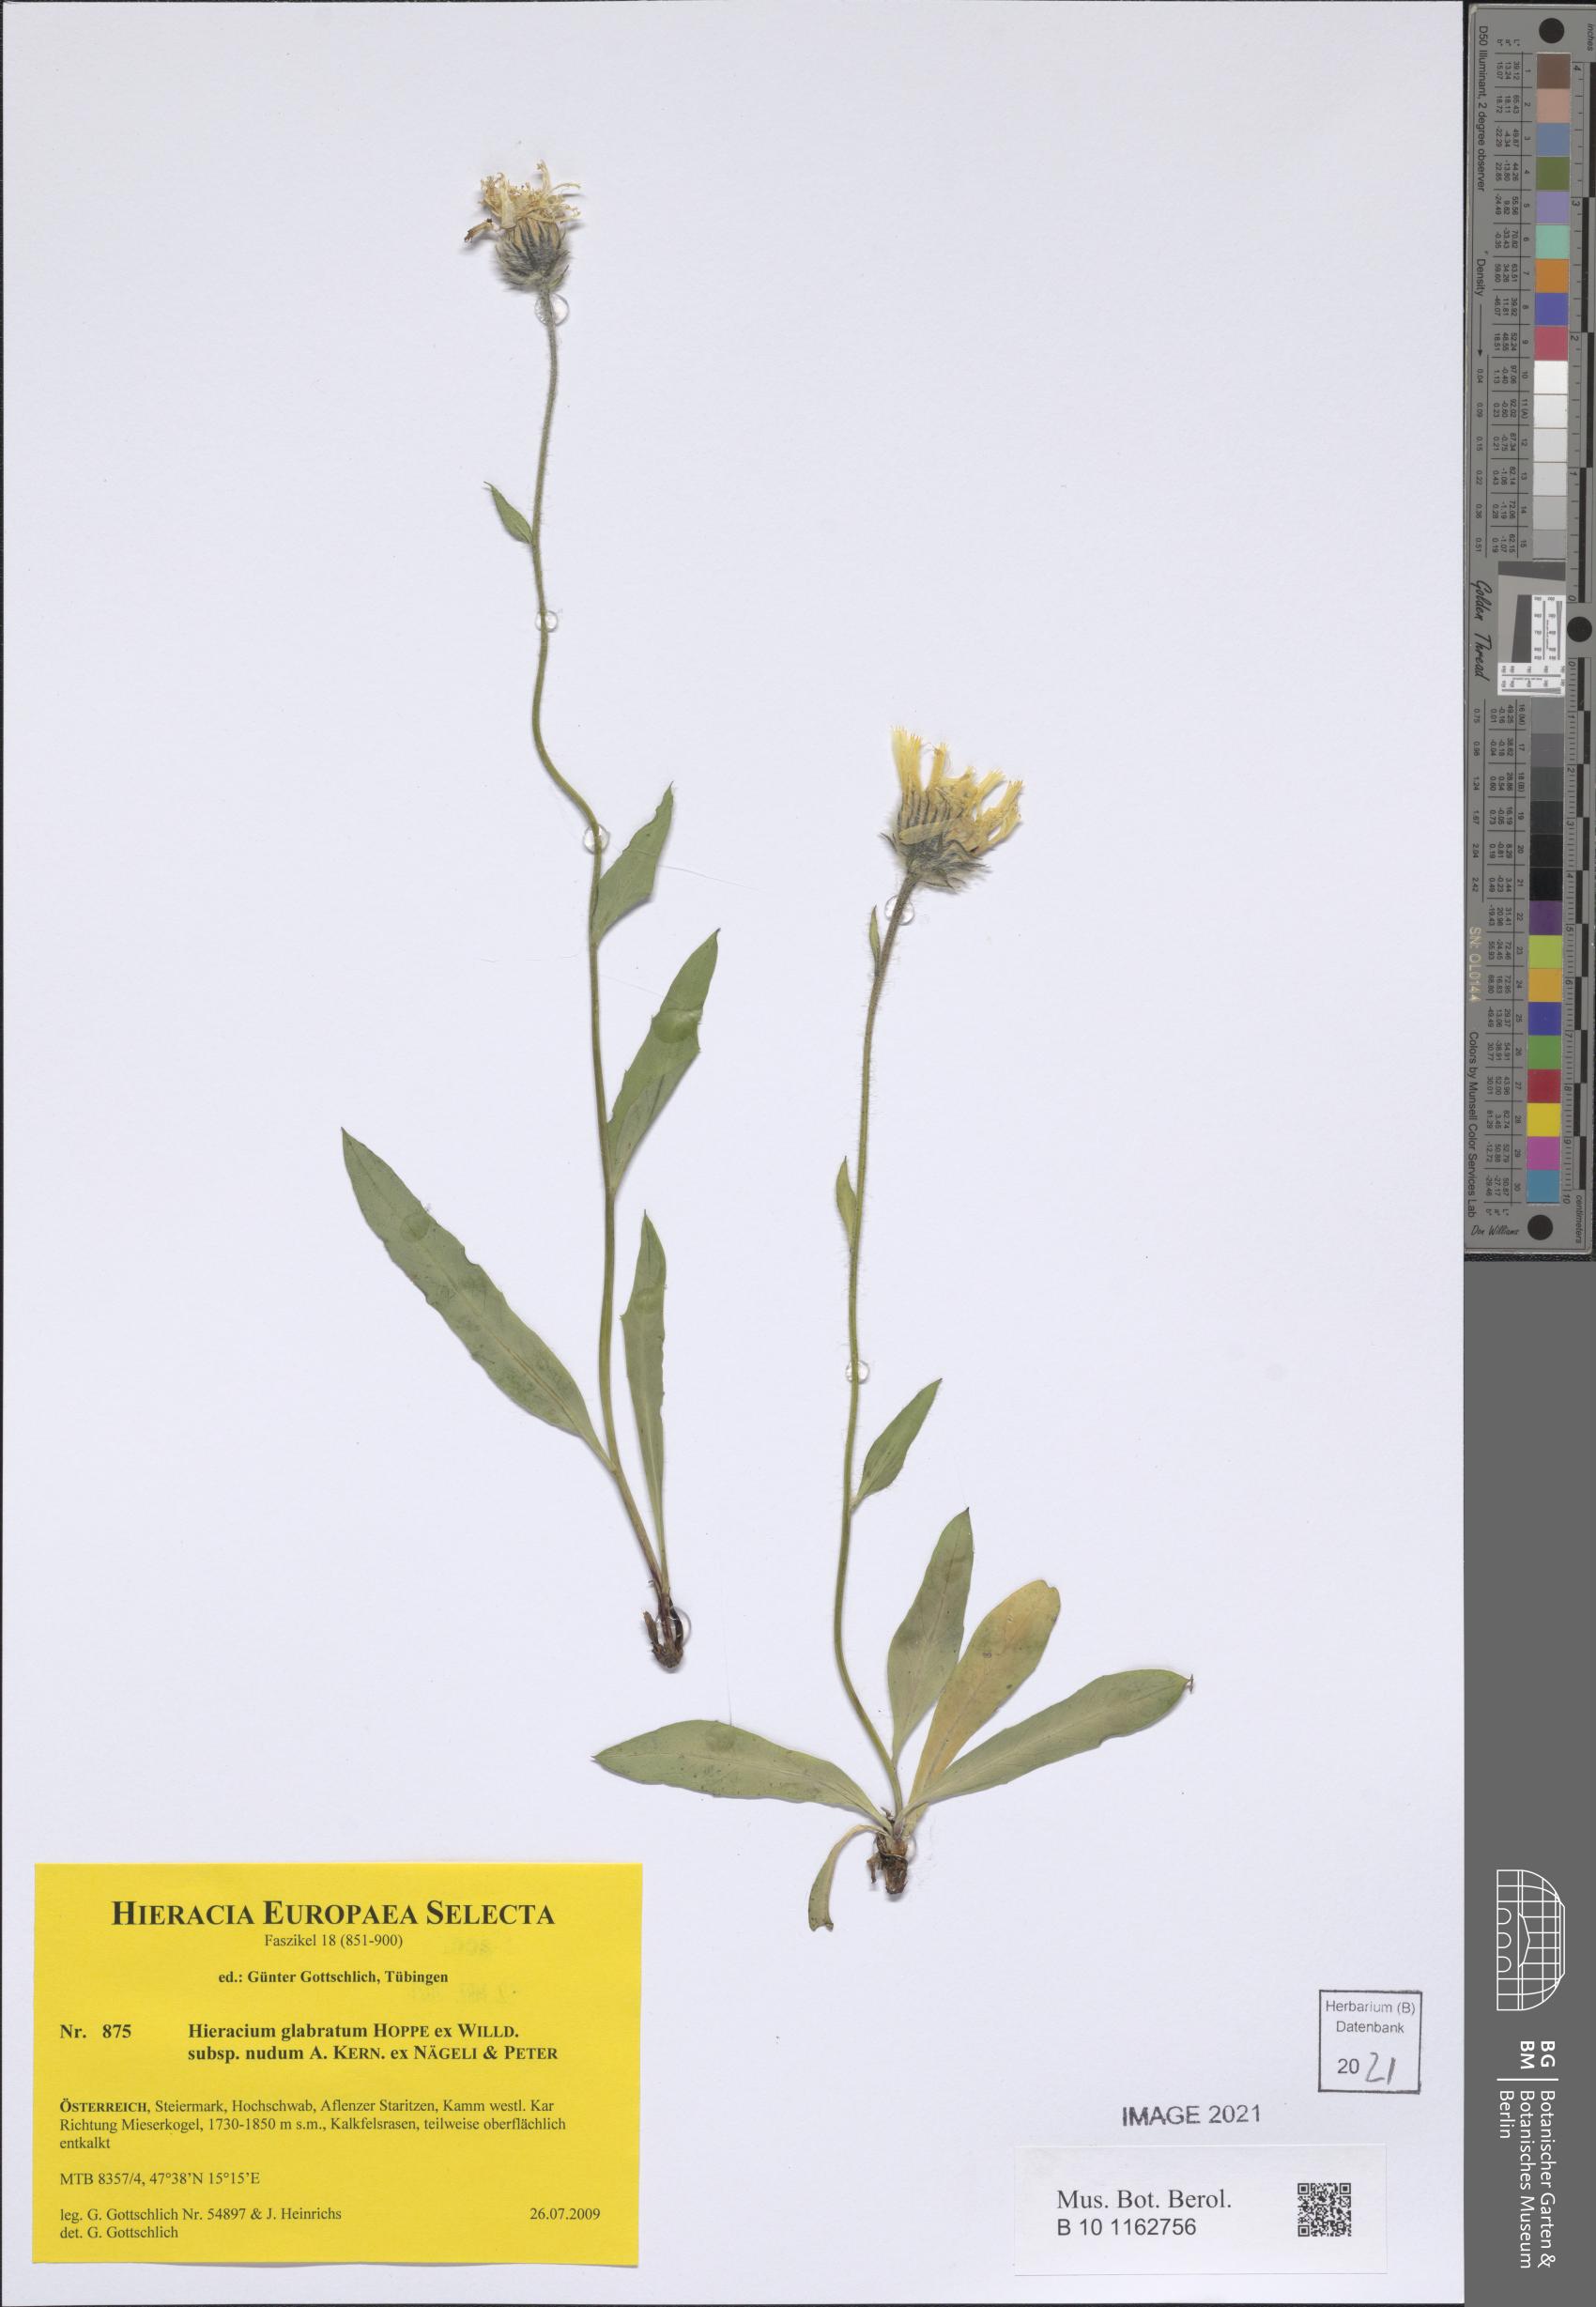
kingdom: Plantae
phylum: Tracheophyta
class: Magnoliopsida
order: Asterales
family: Asteraceae
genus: Hieracium
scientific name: Hieracium glabratum
